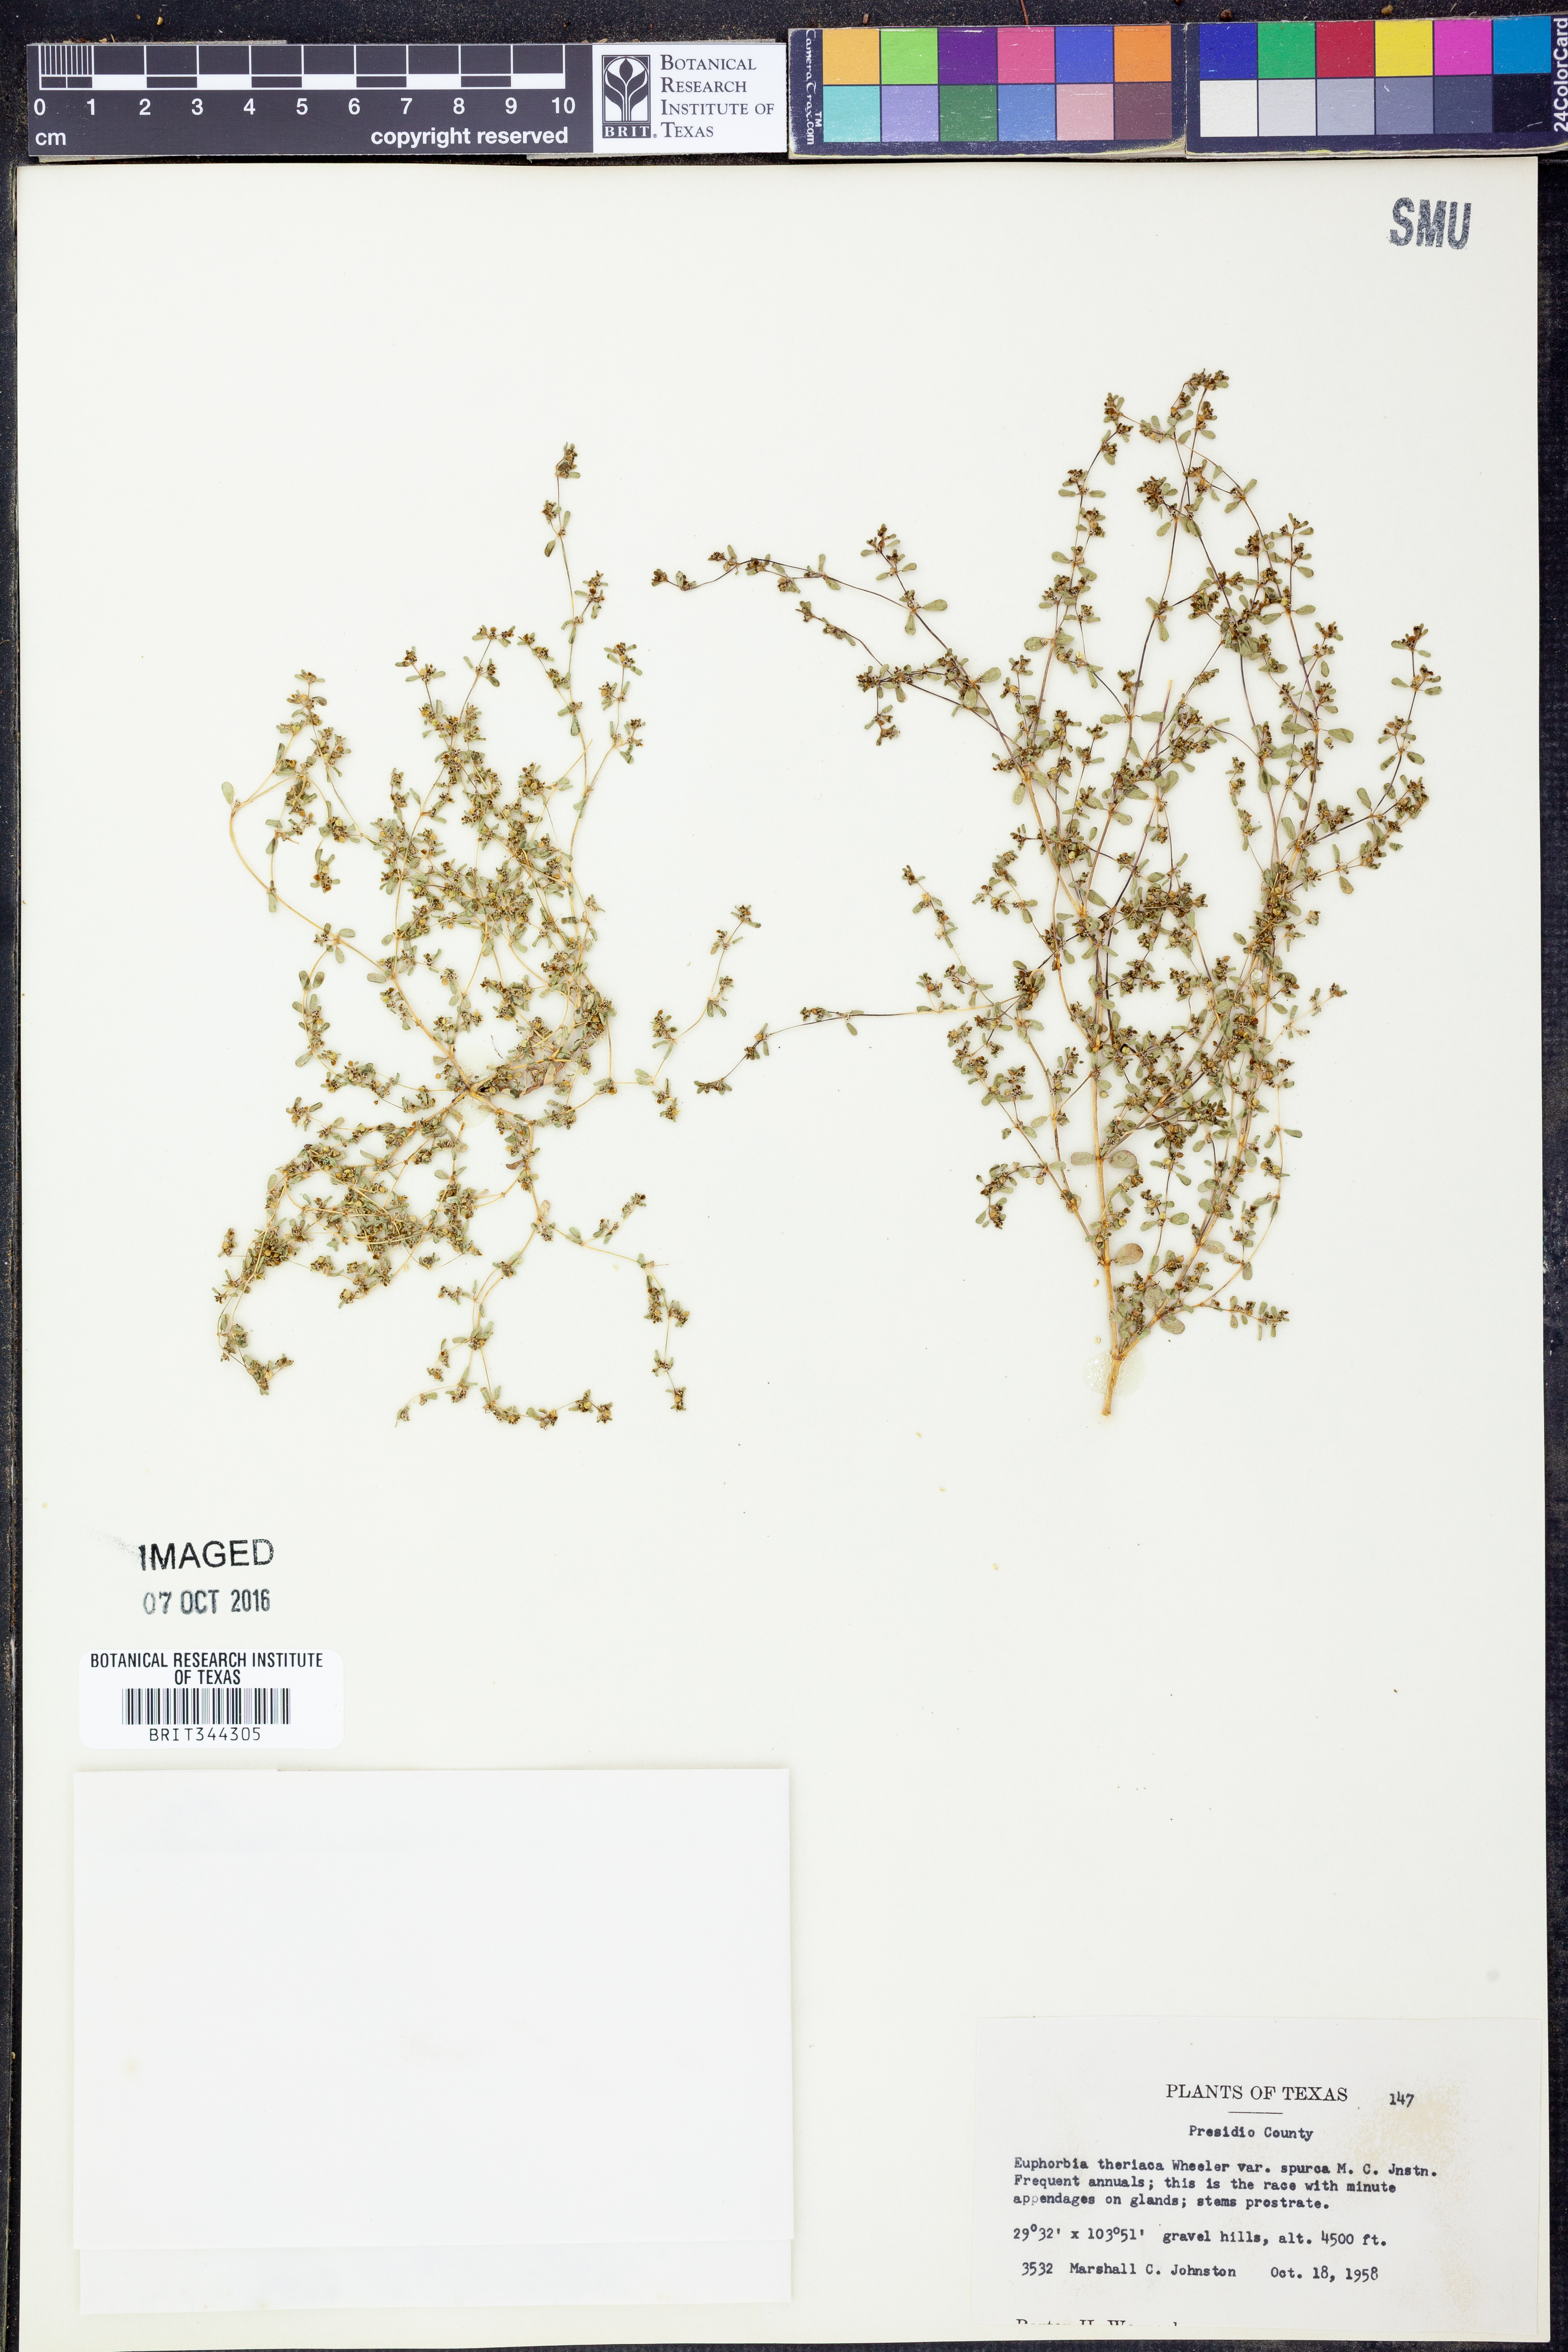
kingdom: Plantae
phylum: Tracheophyta
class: Magnoliopsida
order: Malpighiales
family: Euphorbiaceae
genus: Euphorbia
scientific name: Euphorbia spurca
